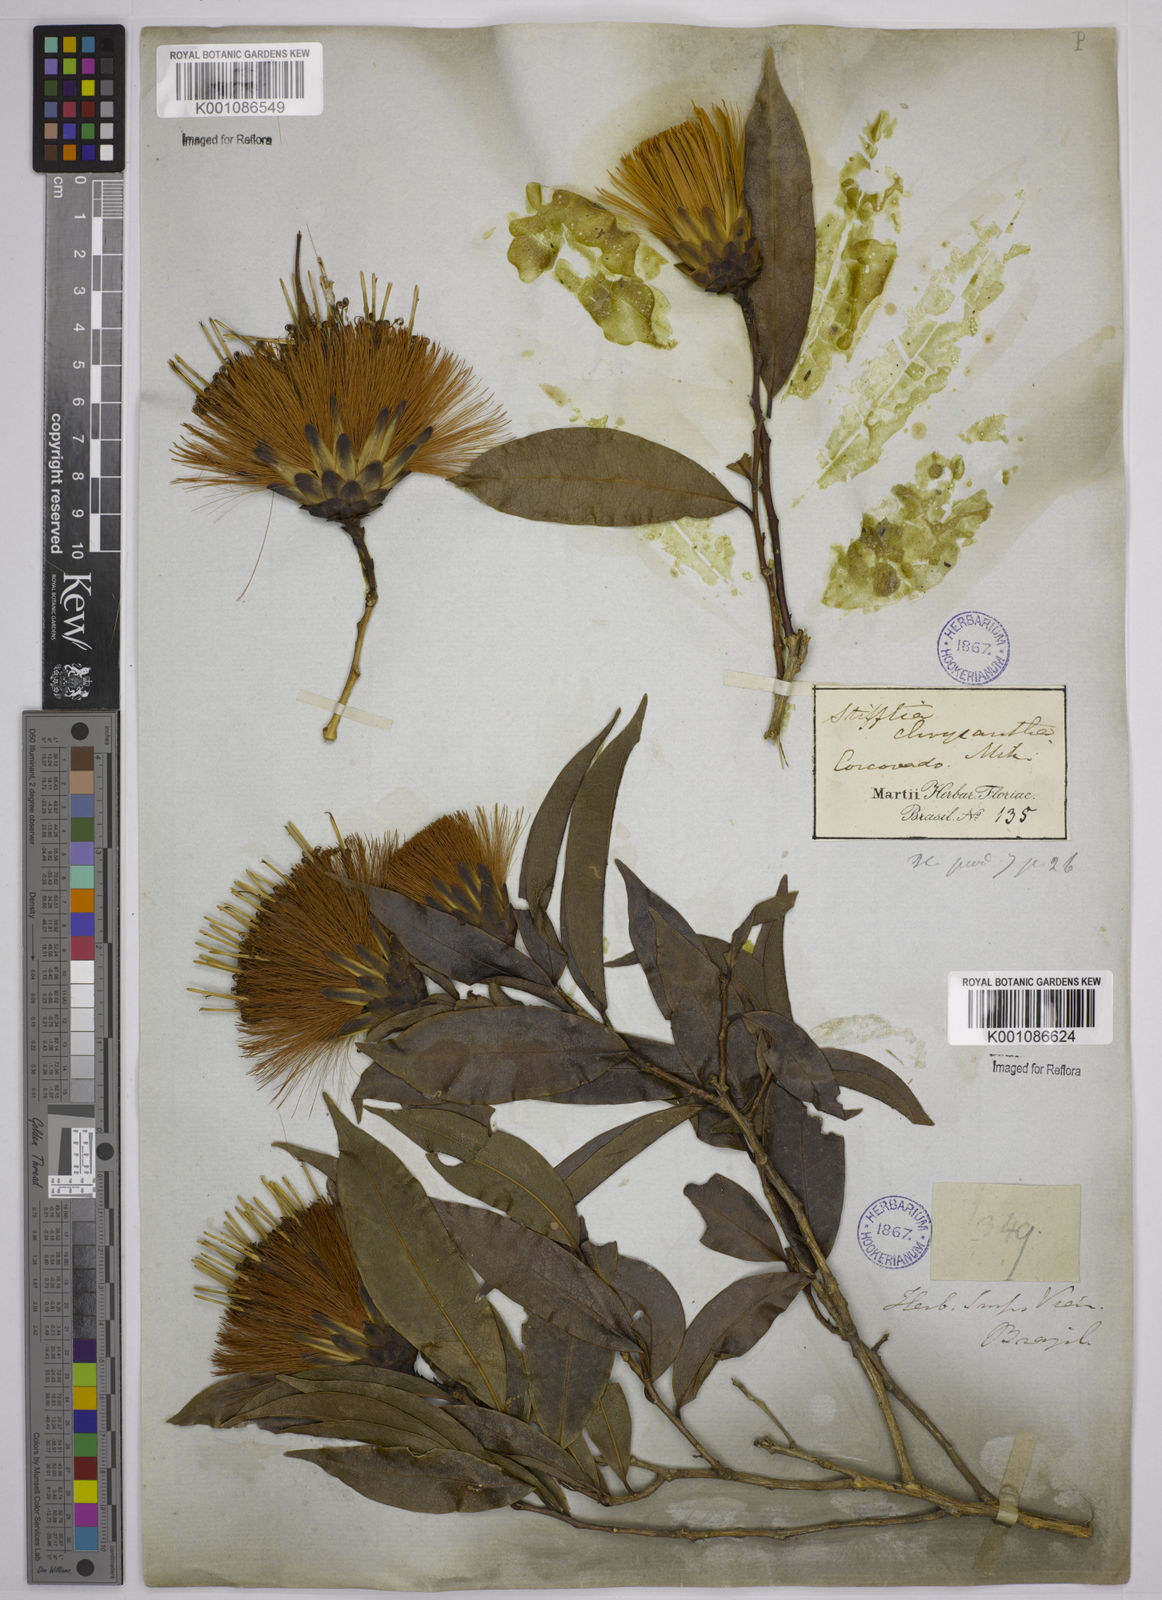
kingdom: Plantae
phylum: Tracheophyta
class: Magnoliopsida
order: Asterales
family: Asteraceae
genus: Stifftia
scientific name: Stifftia chrysantha
